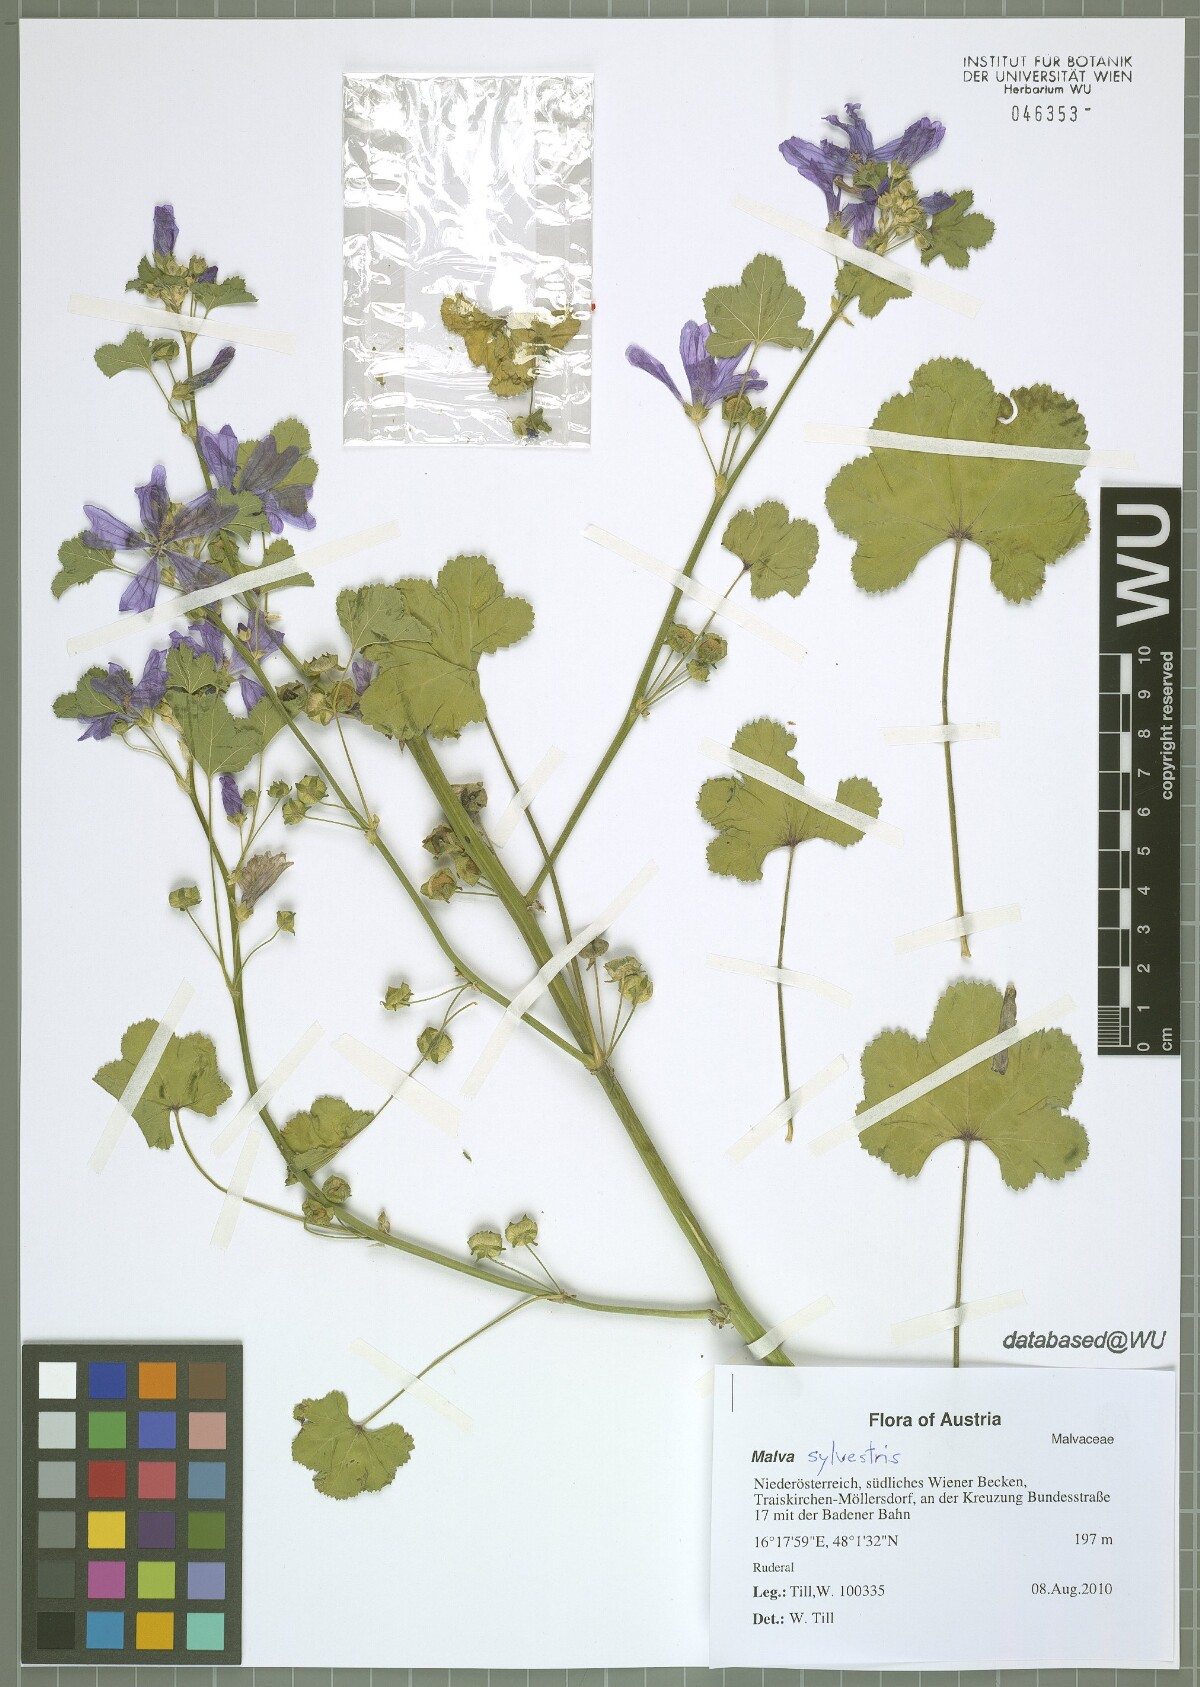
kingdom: Plantae
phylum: Tracheophyta
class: Magnoliopsida
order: Malvales
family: Malvaceae
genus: Malva
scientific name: Malva sylvestris
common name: Common mallow
